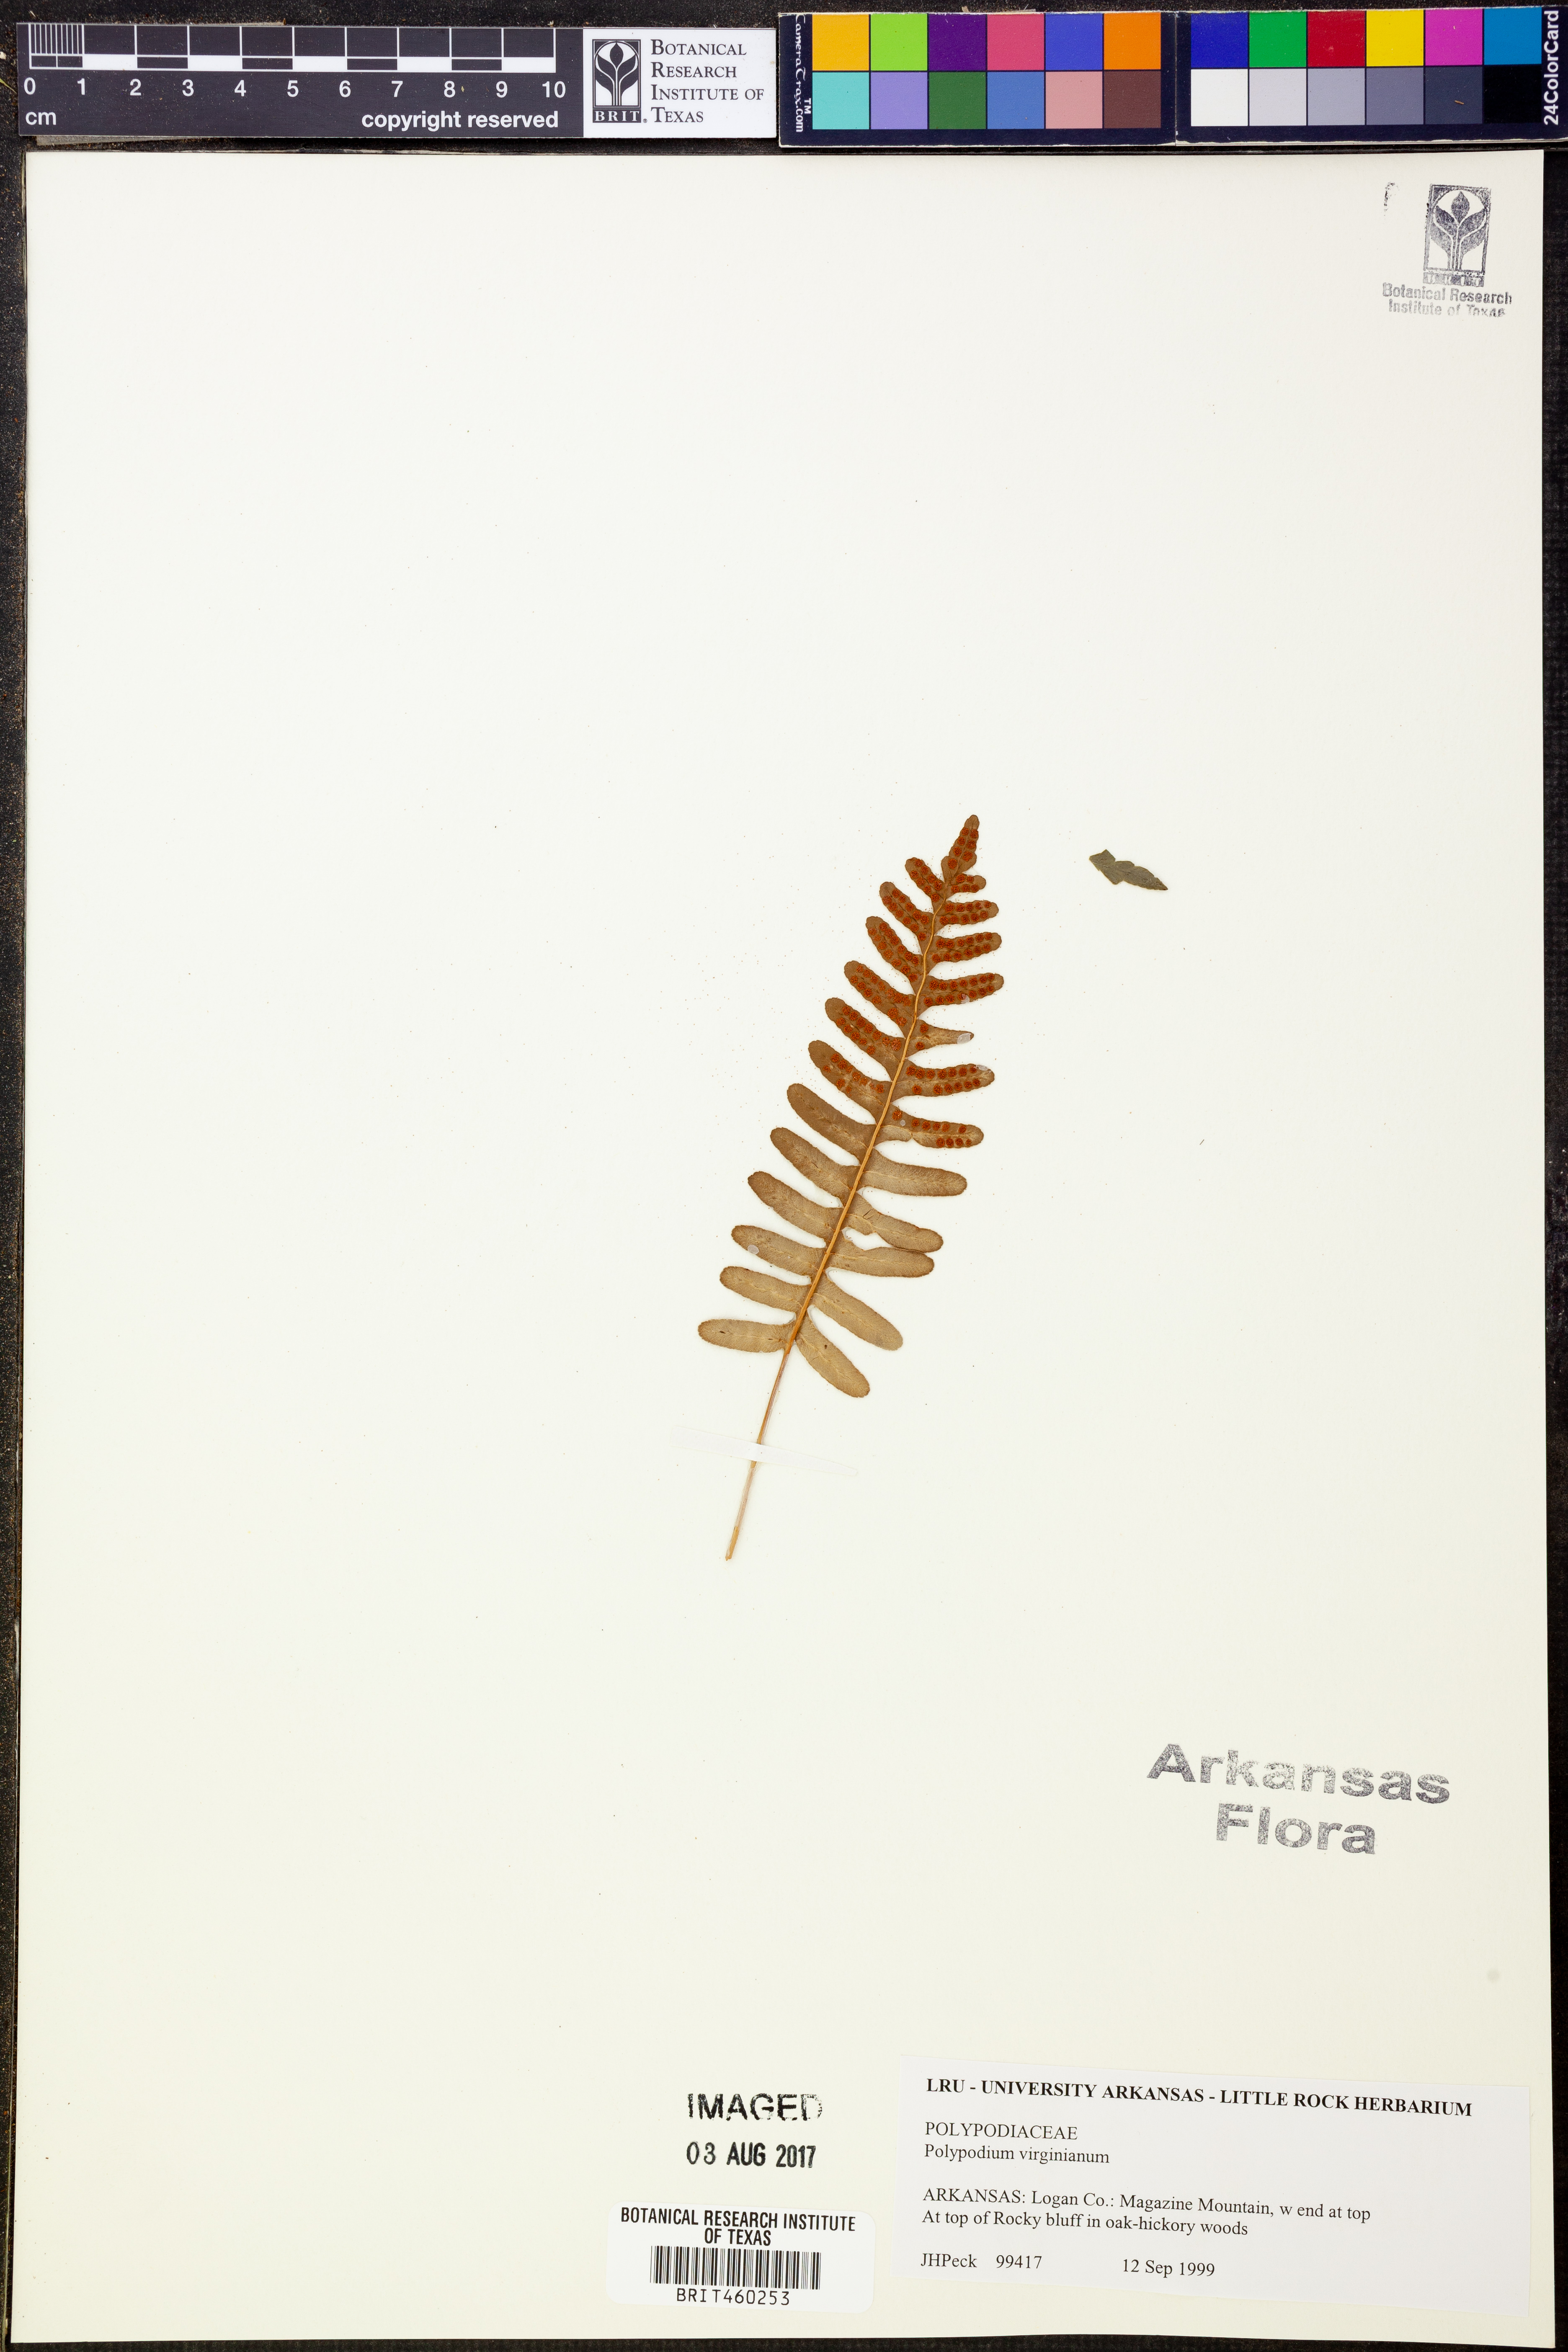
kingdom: Plantae
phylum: Tracheophyta
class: Polypodiopsida
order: Polypodiales
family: Polypodiaceae
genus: Polypodium
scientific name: Polypodium virginianum
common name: American wall fern
